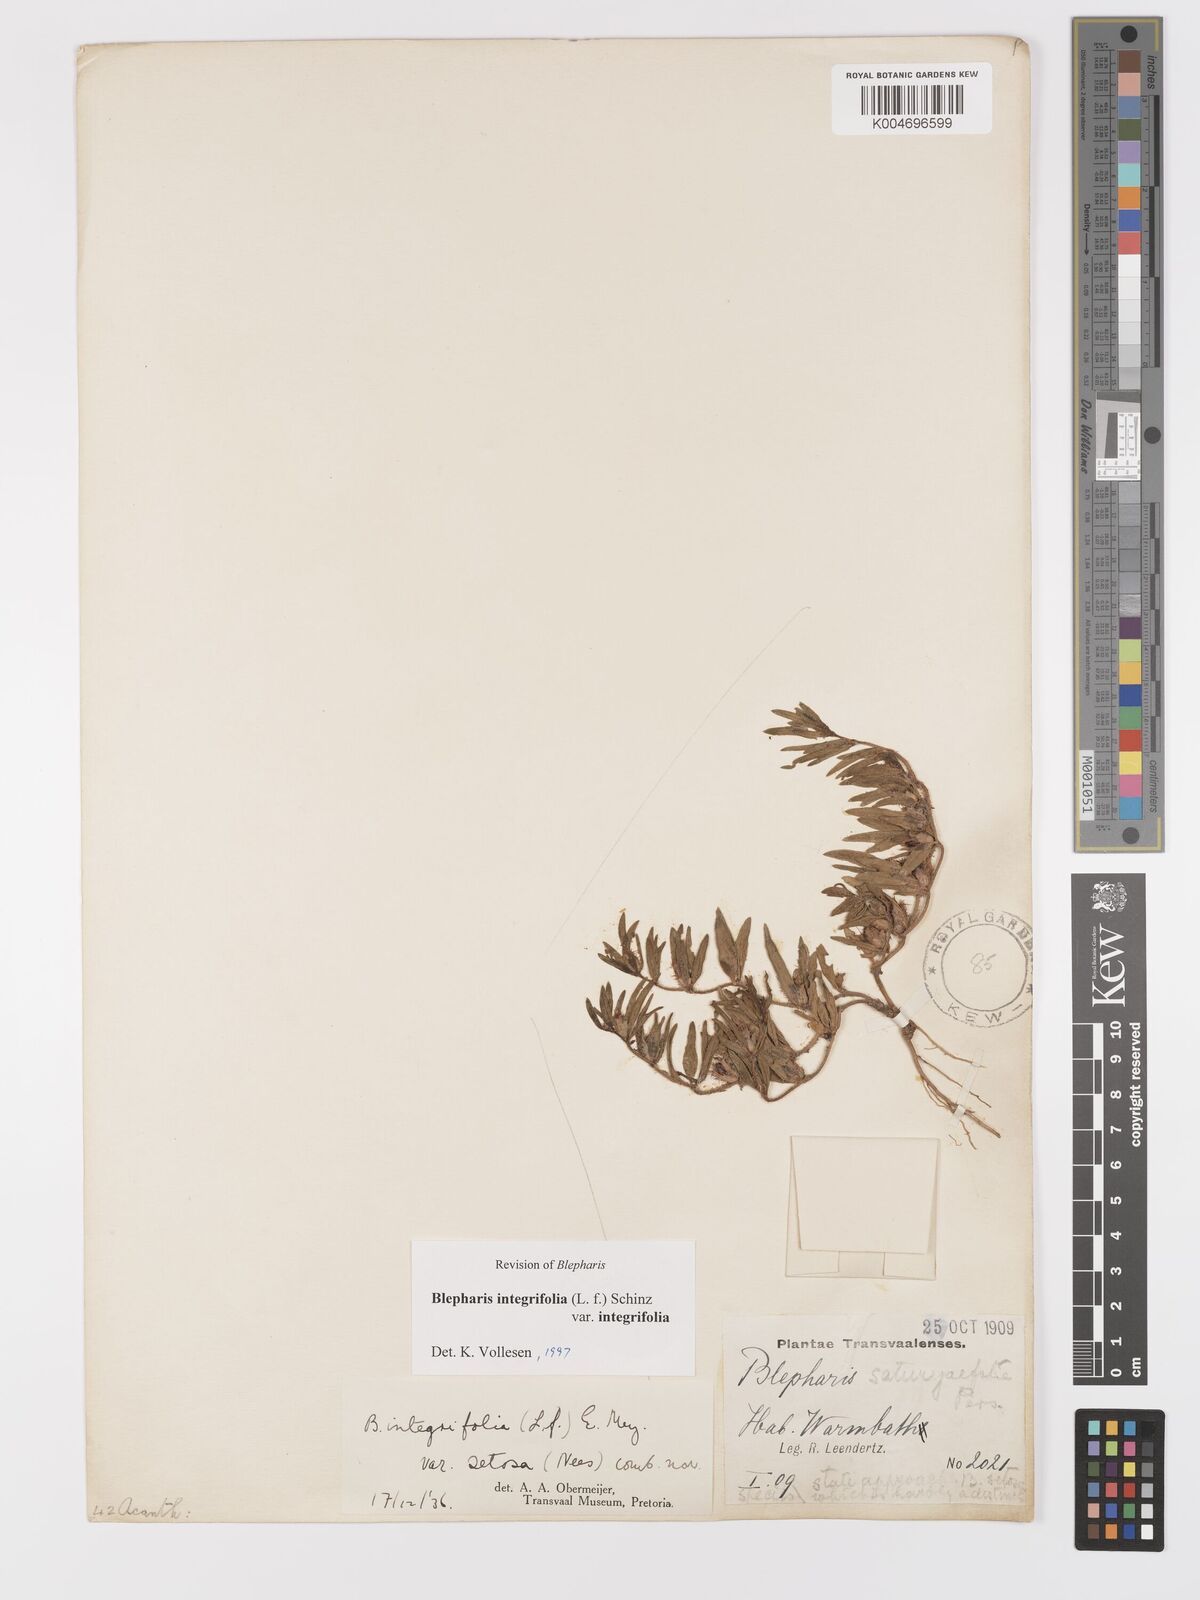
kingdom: Plantae
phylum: Tracheophyta
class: Magnoliopsida
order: Lamiales
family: Acanthaceae
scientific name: Acanthaceae
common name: Acanthaceae
